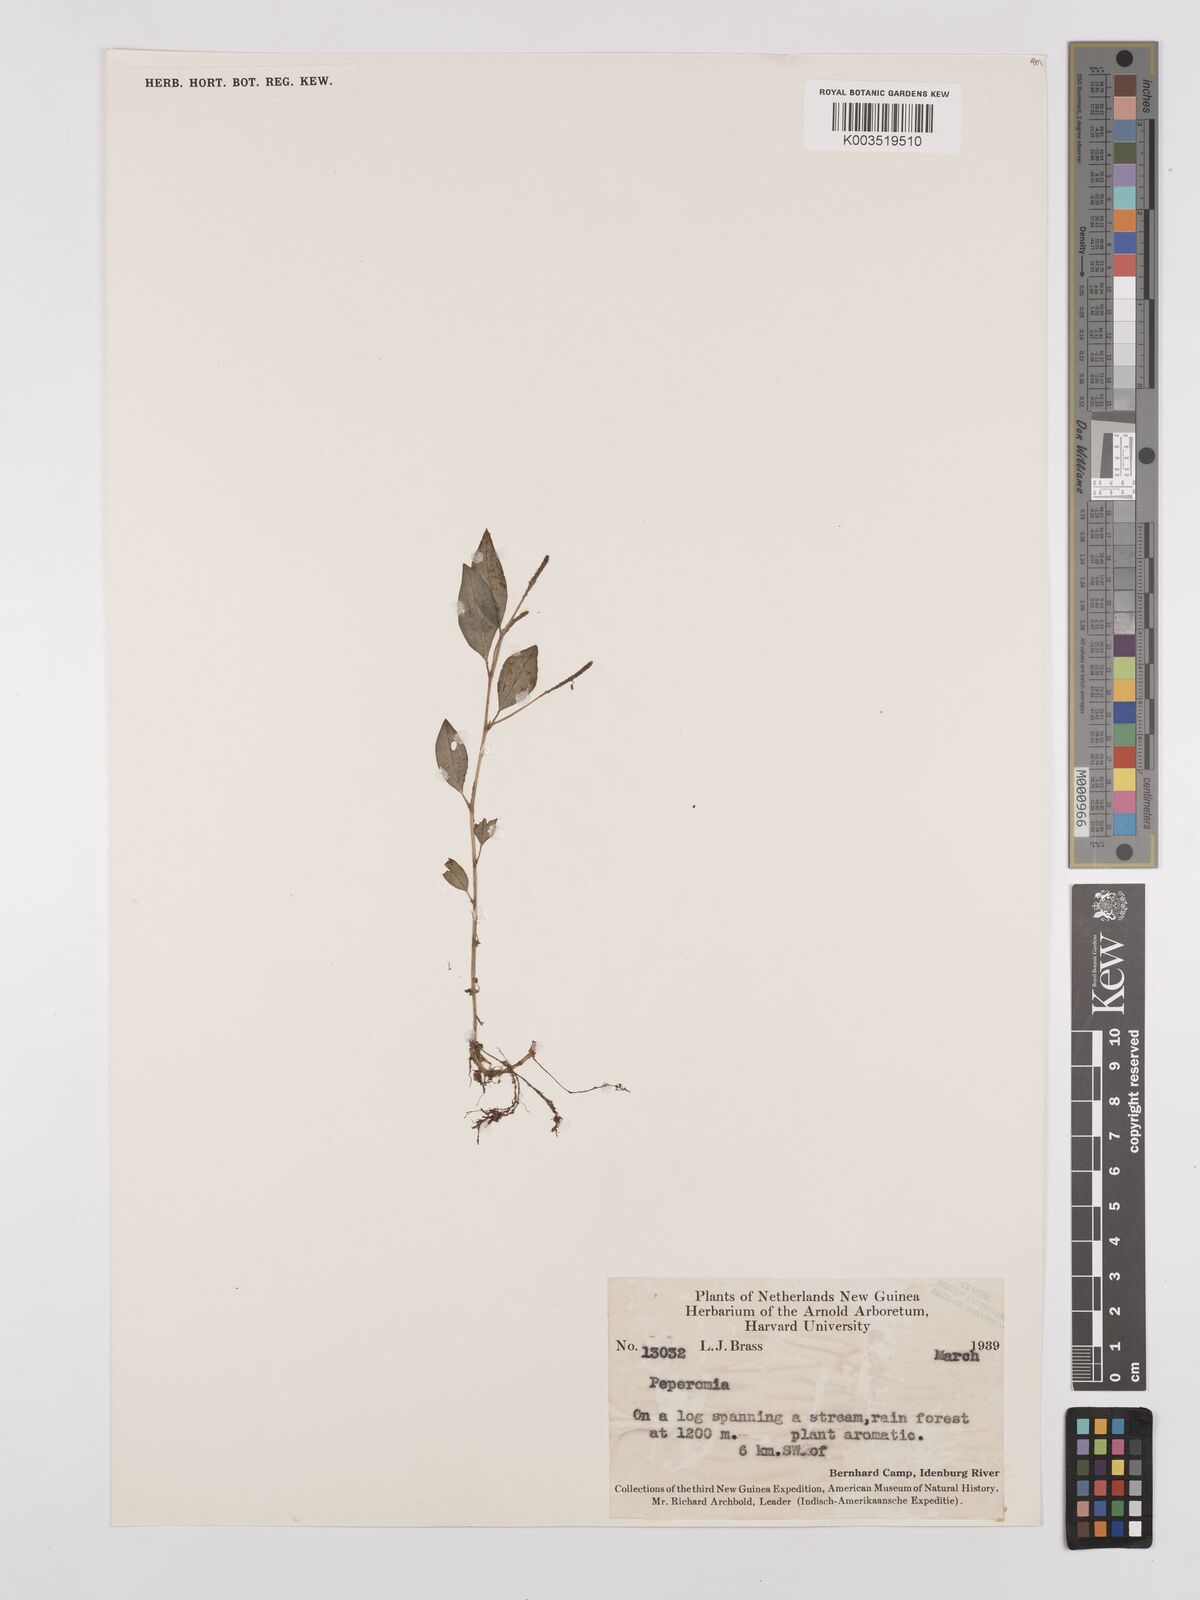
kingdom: Plantae
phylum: Tracheophyta
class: Magnoliopsida
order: Piperales
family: Piperaceae
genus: Peperomia
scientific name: Peperomia
